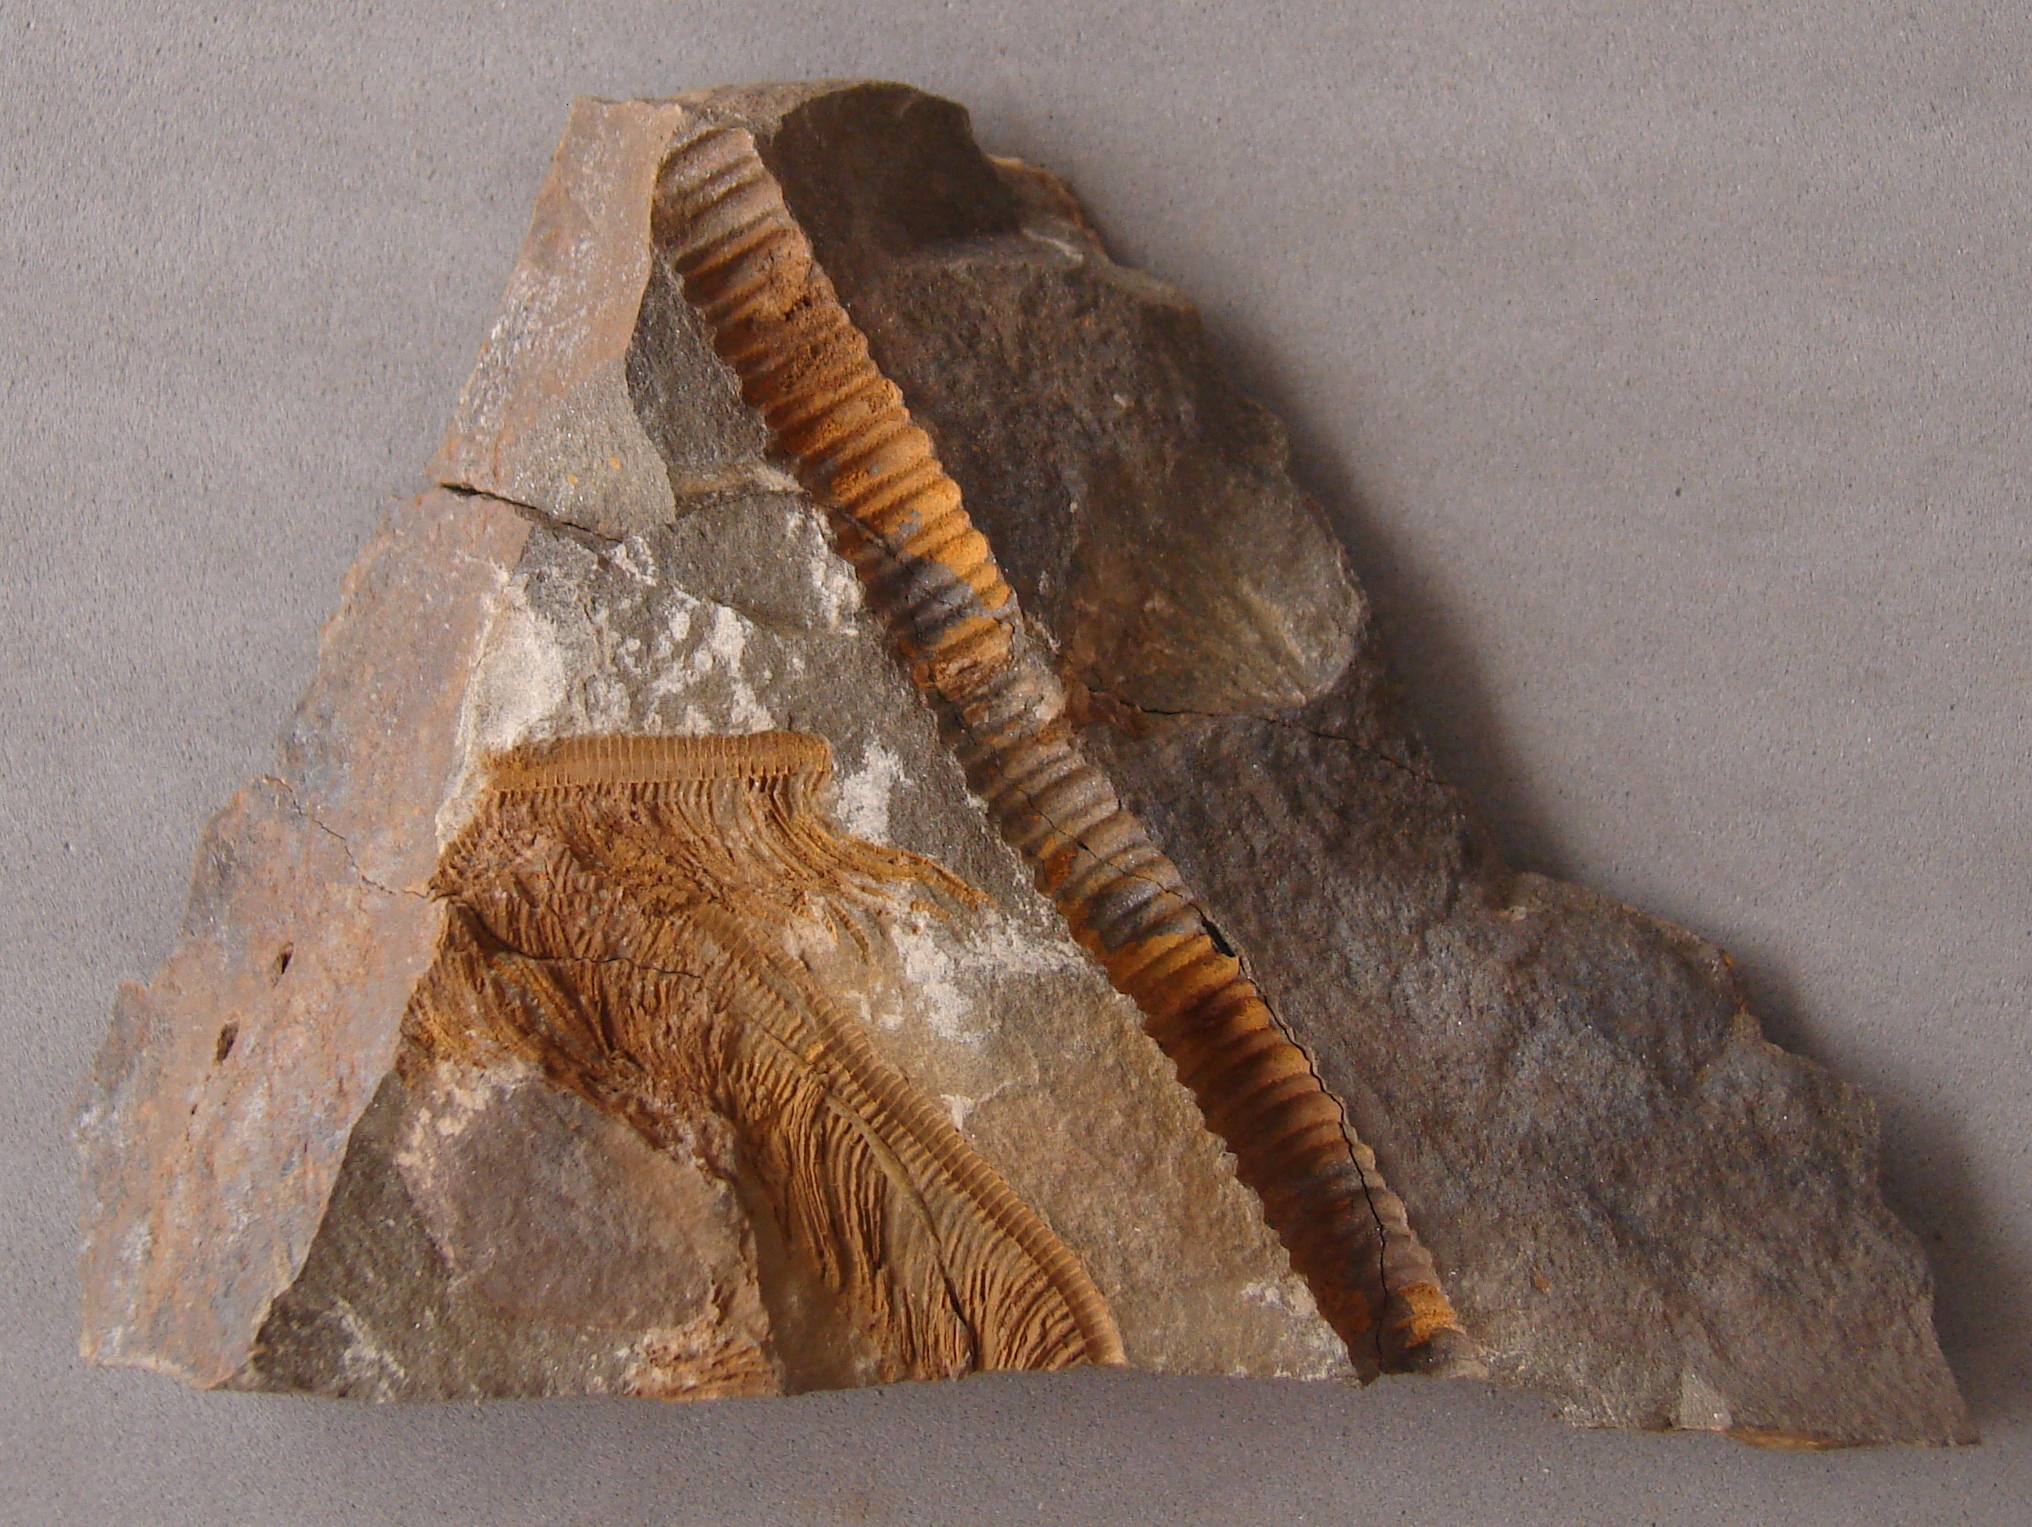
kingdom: Animalia
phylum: Echinodermata
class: Crinoidea
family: Melocrinitidae
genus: Ctenocrinus
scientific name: Ctenocrinus
